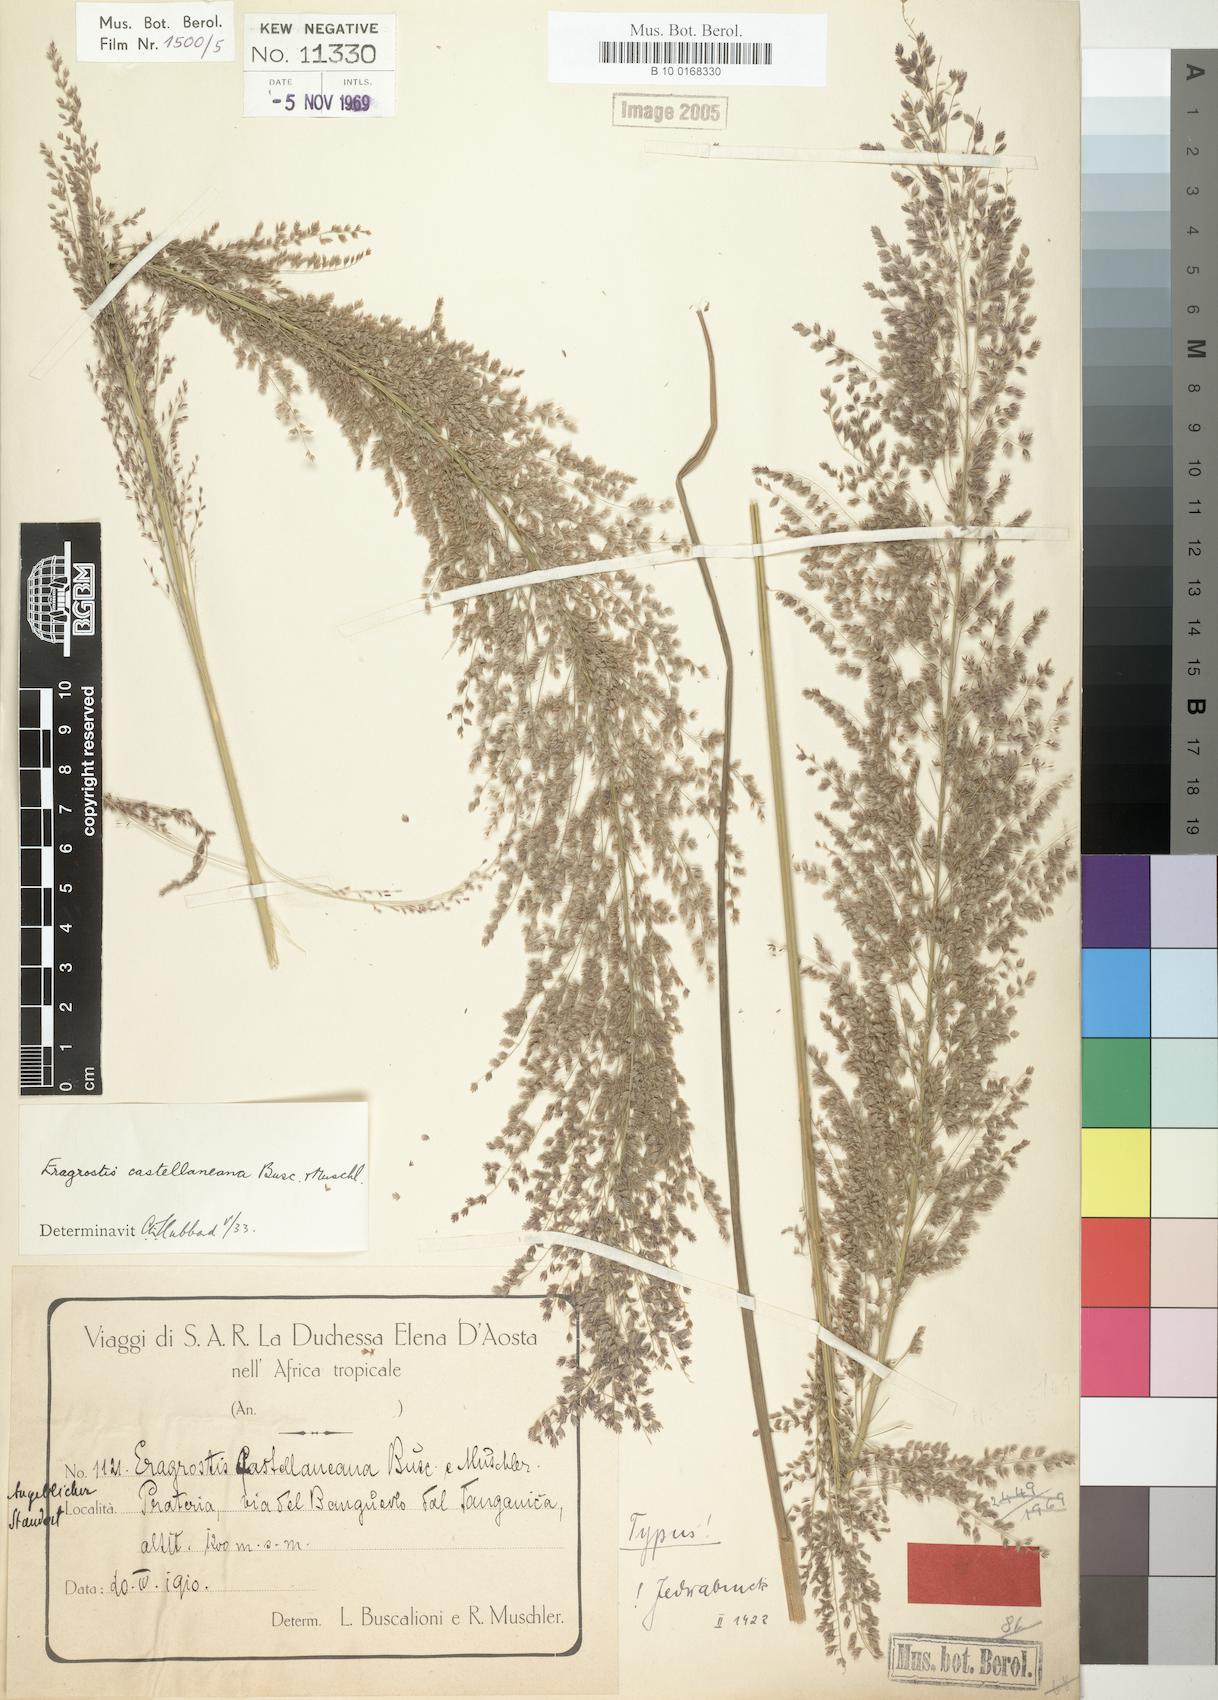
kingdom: Plantae
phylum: Tracheophyta
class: Liliopsida
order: Poales
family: Poaceae
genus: Eragrostis
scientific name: Eragrostis castellaneana
